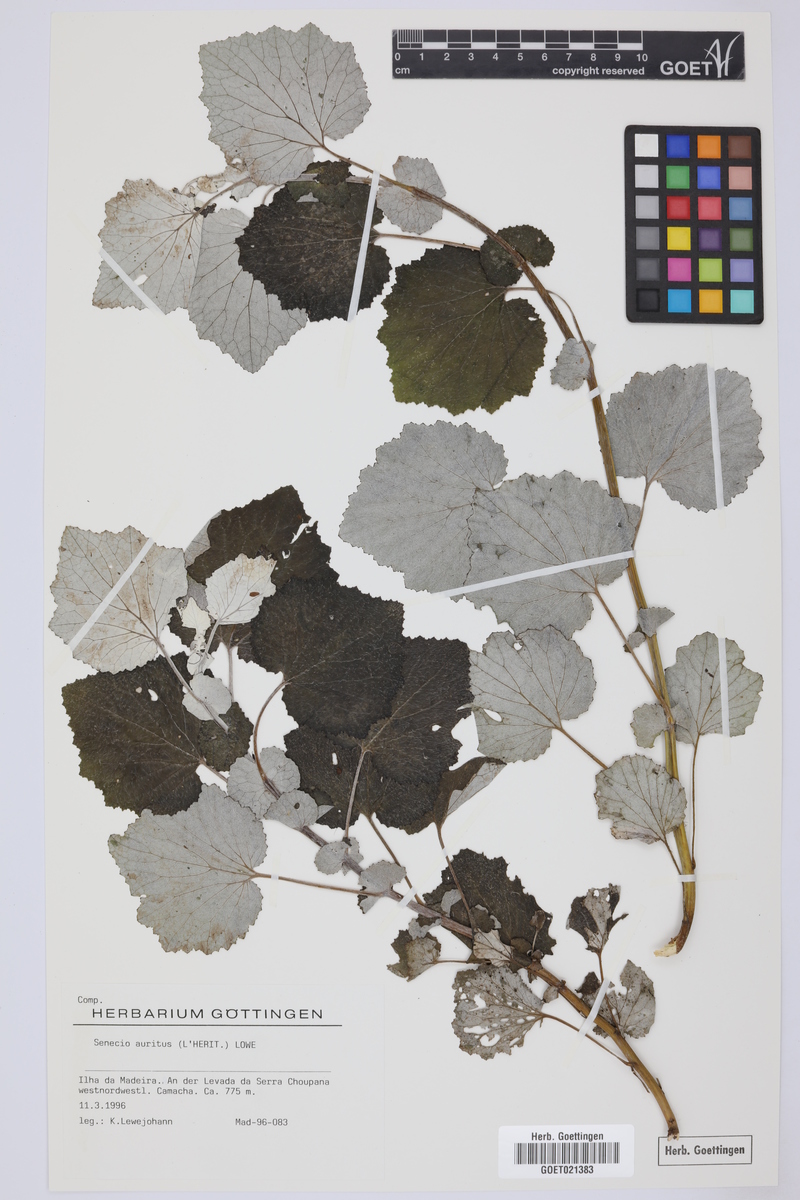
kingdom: Plantae
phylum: Tracheophyta
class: Magnoliopsida
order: Asterales
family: Asteraceae
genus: Pericallis
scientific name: Pericallis aurita
